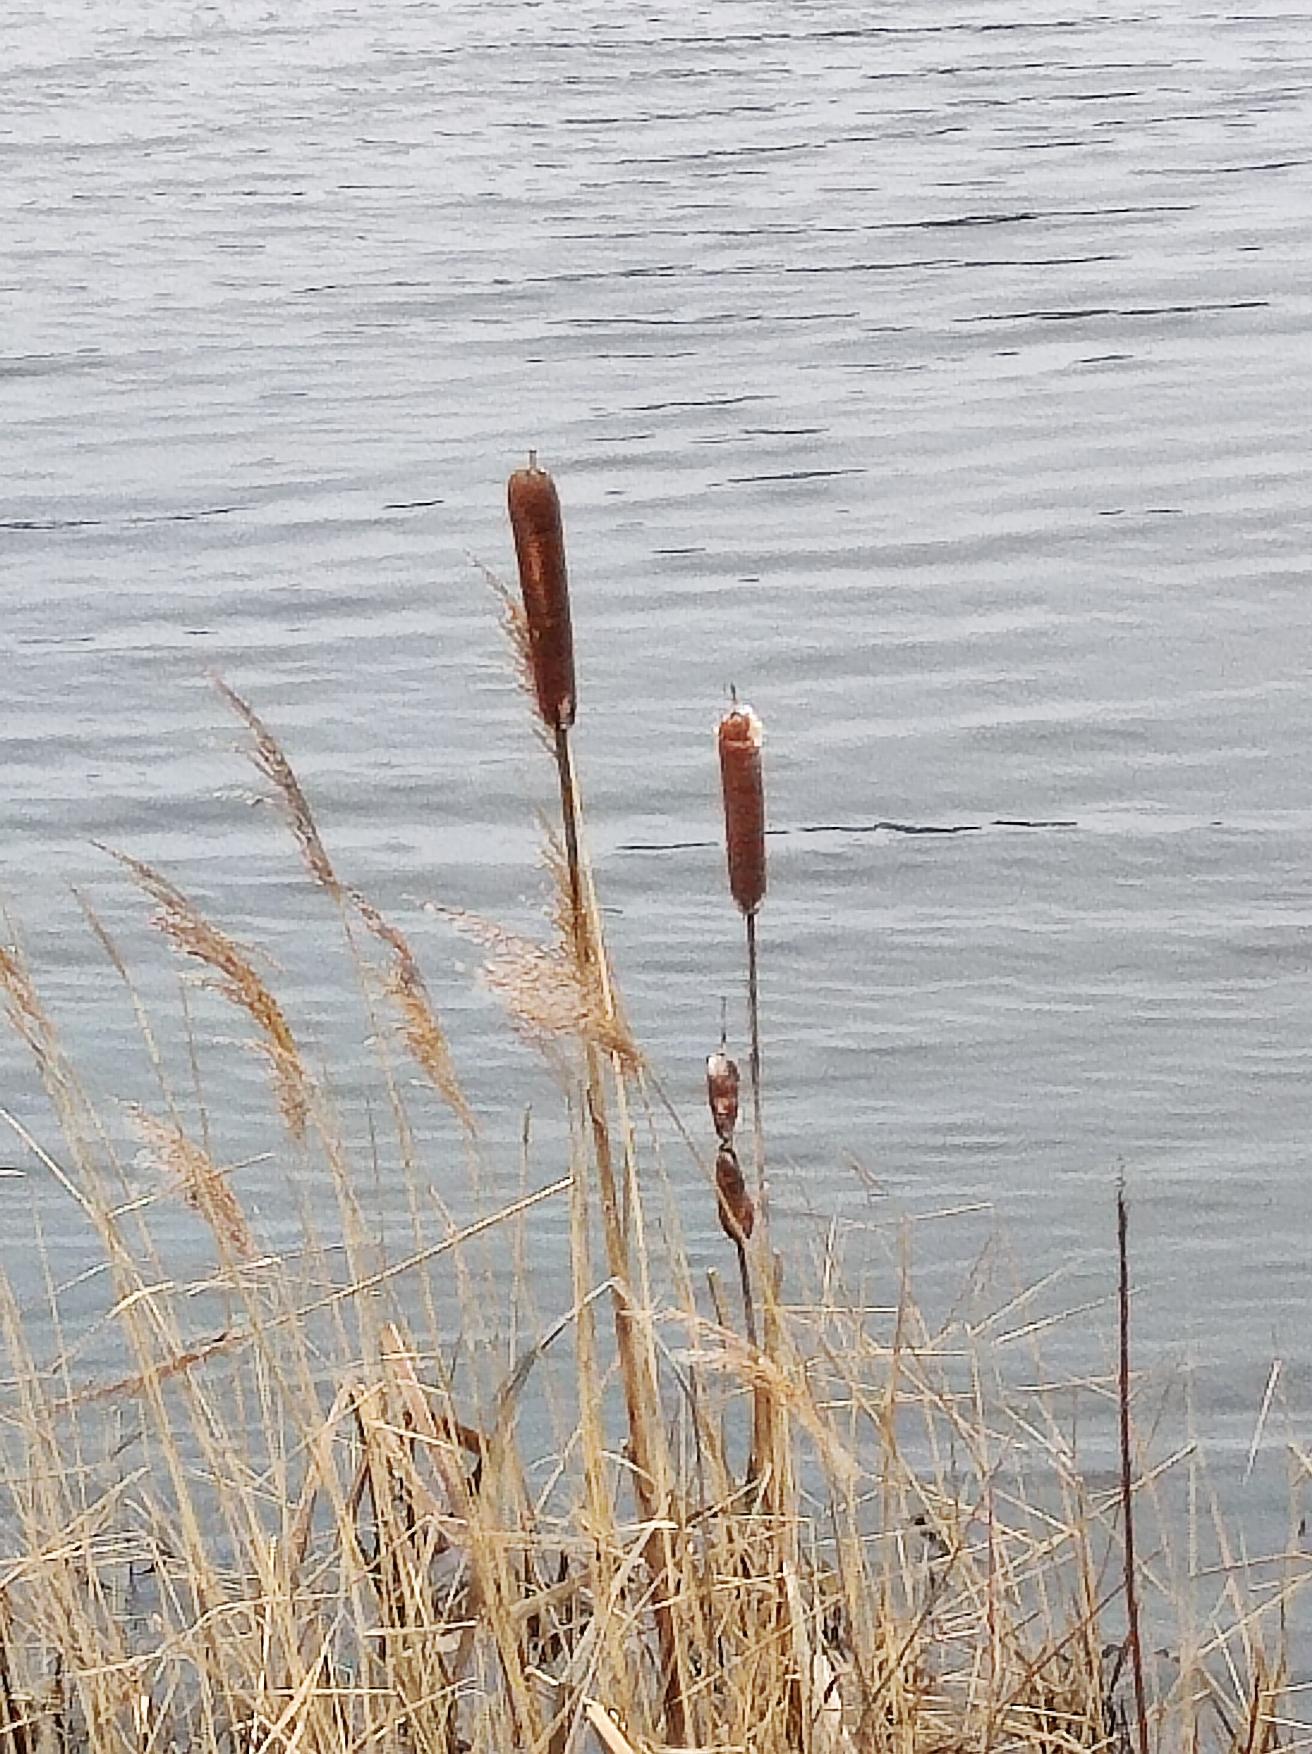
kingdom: Plantae
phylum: Tracheophyta
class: Liliopsida
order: Poales
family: Typhaceae
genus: Typha
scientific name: Typha latifolia
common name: Bredbladet dunhammer
